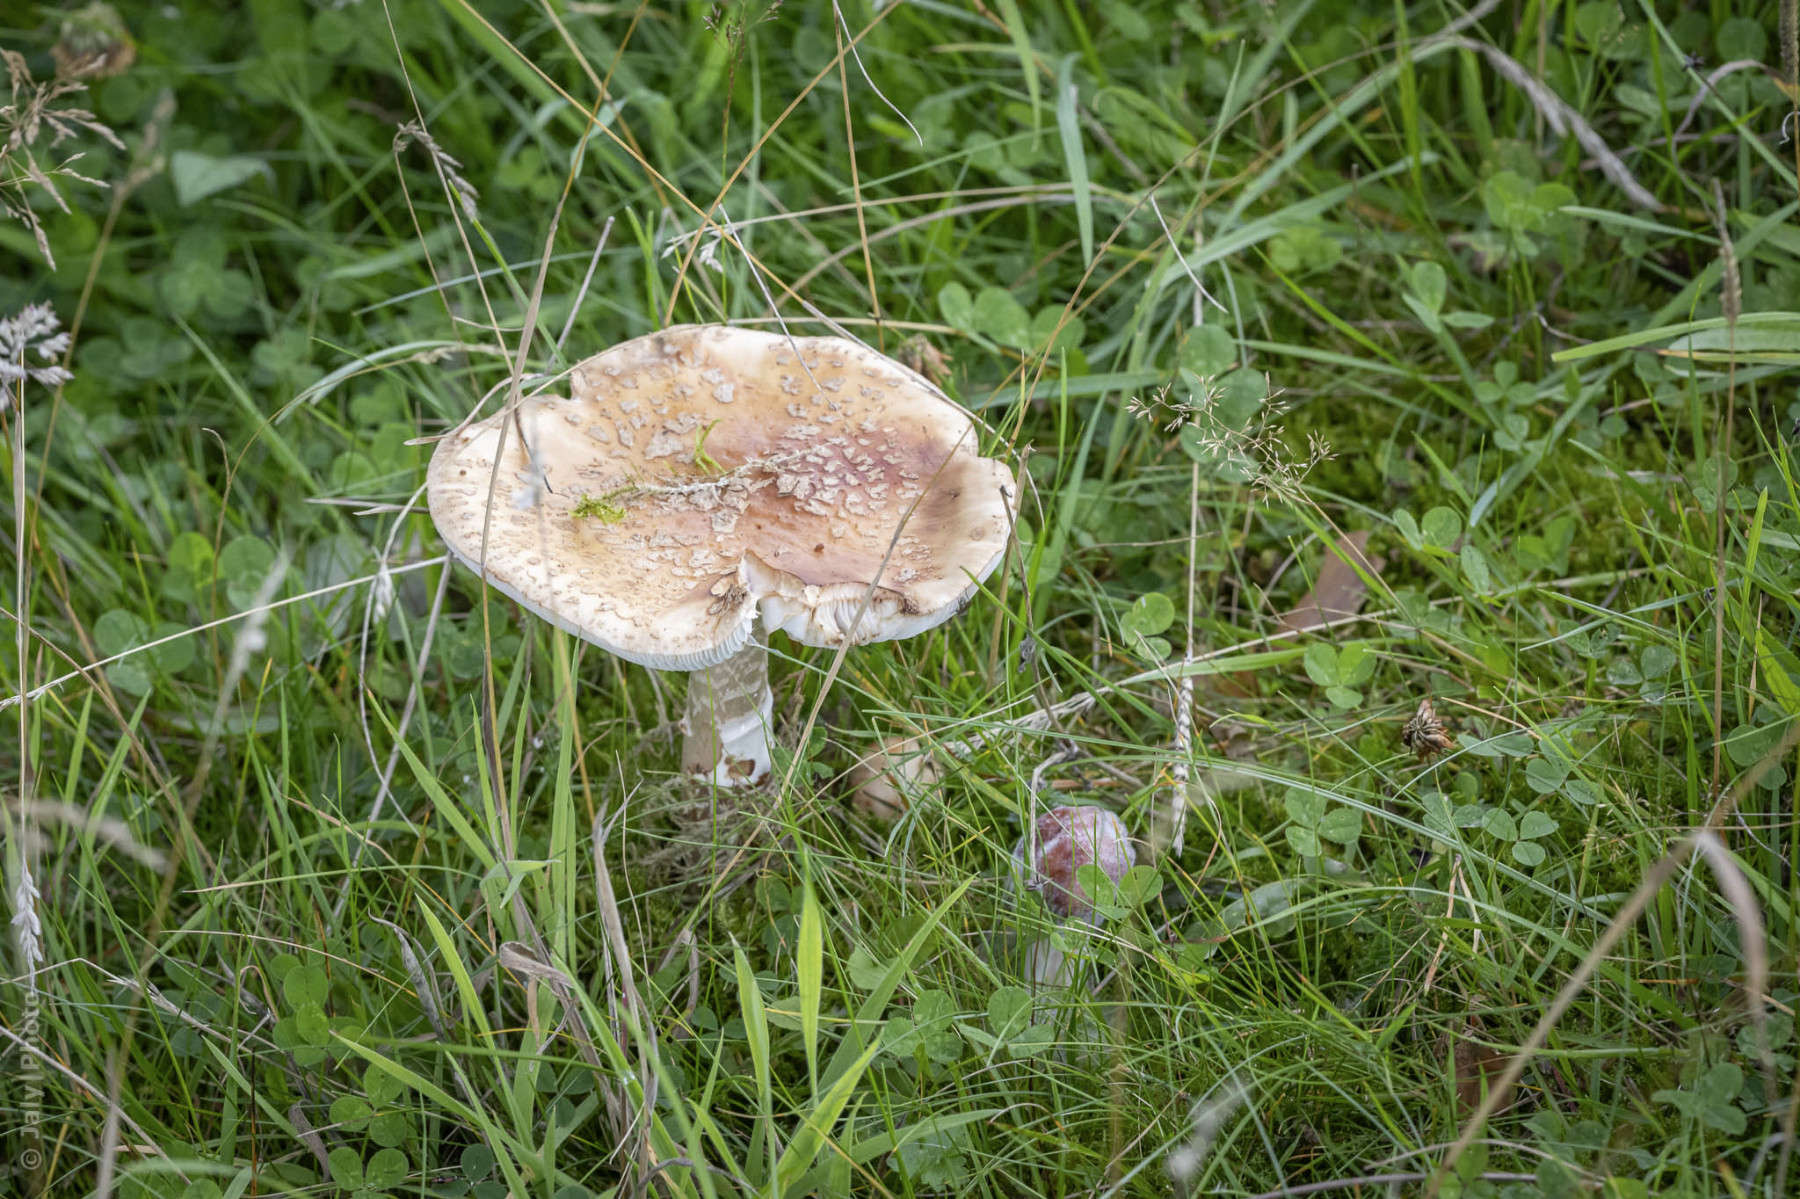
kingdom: Fungi
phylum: Basidiomycota
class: Agaricomycetes
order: Agaricales
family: Amanitaceae
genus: Amanita
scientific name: Amanita rubescens
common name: rødmende fluesvamp
